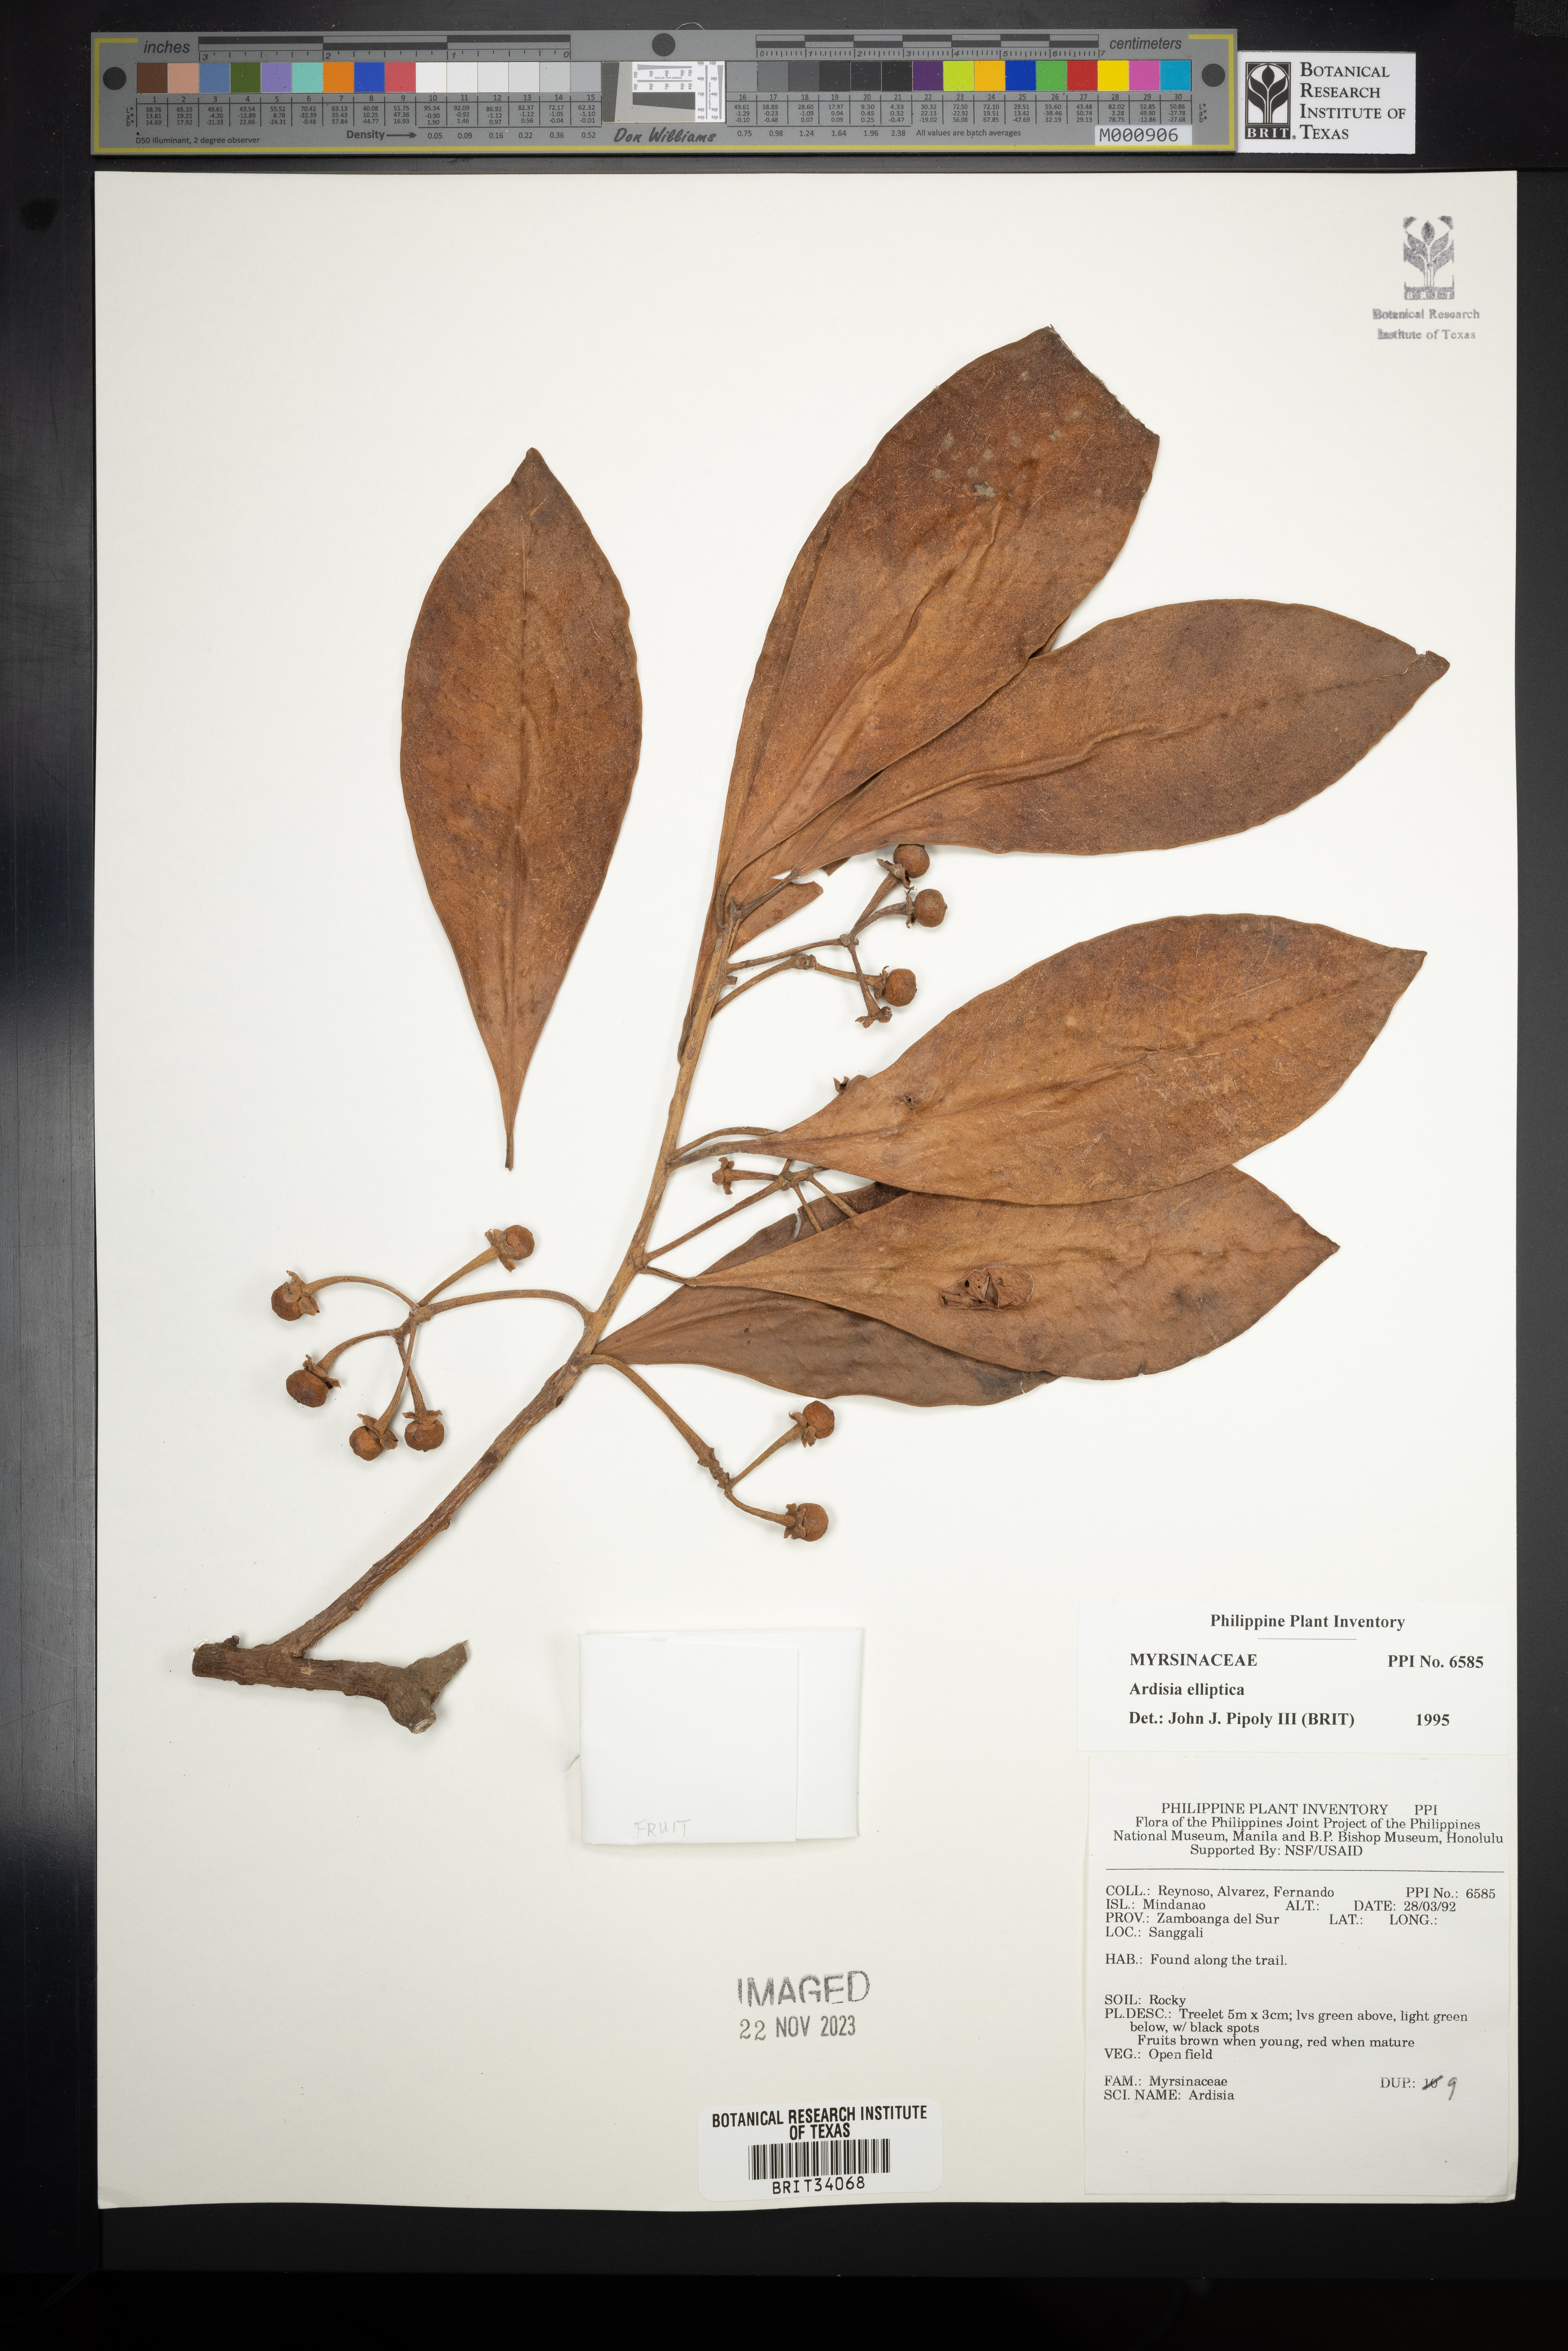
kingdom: Plantae
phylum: Tracheophyta
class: Magnoliopsida
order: Ericales
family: Primulaceae
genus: Ardisia
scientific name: Ardisia elliptica
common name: Shoebutton
